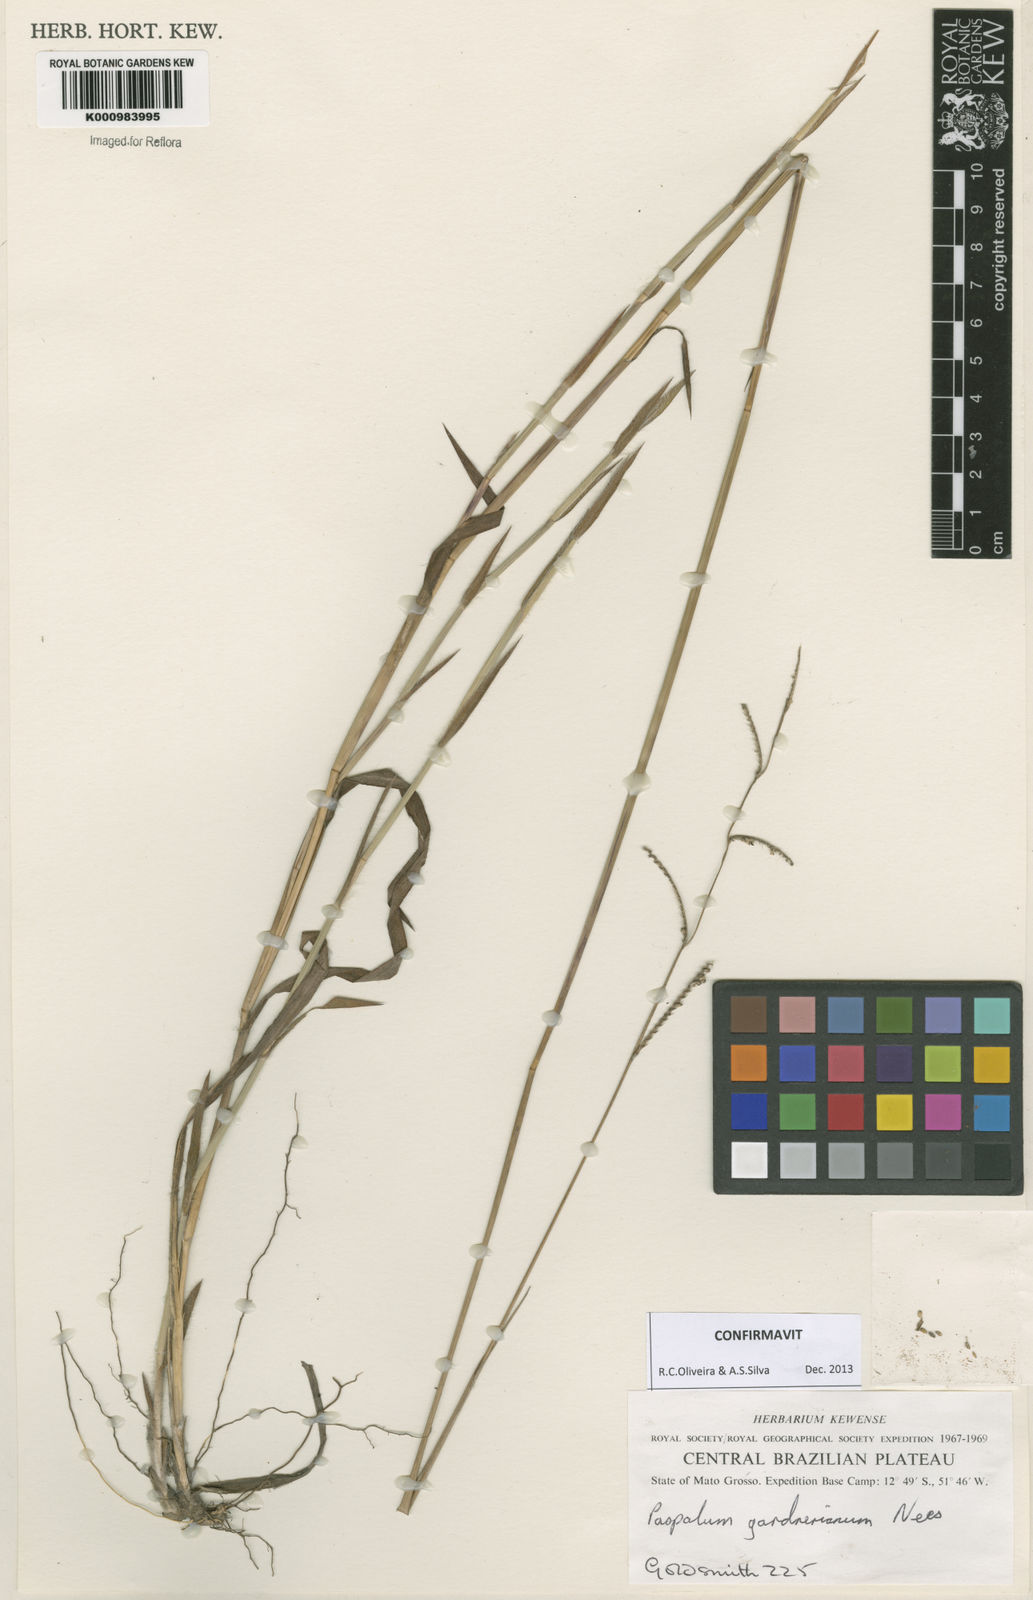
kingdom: Plantae
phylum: Tracheophyta
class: Liliopsida
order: Poales
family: Poaceae
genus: Paspalum
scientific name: Paspalum gardnerianum
